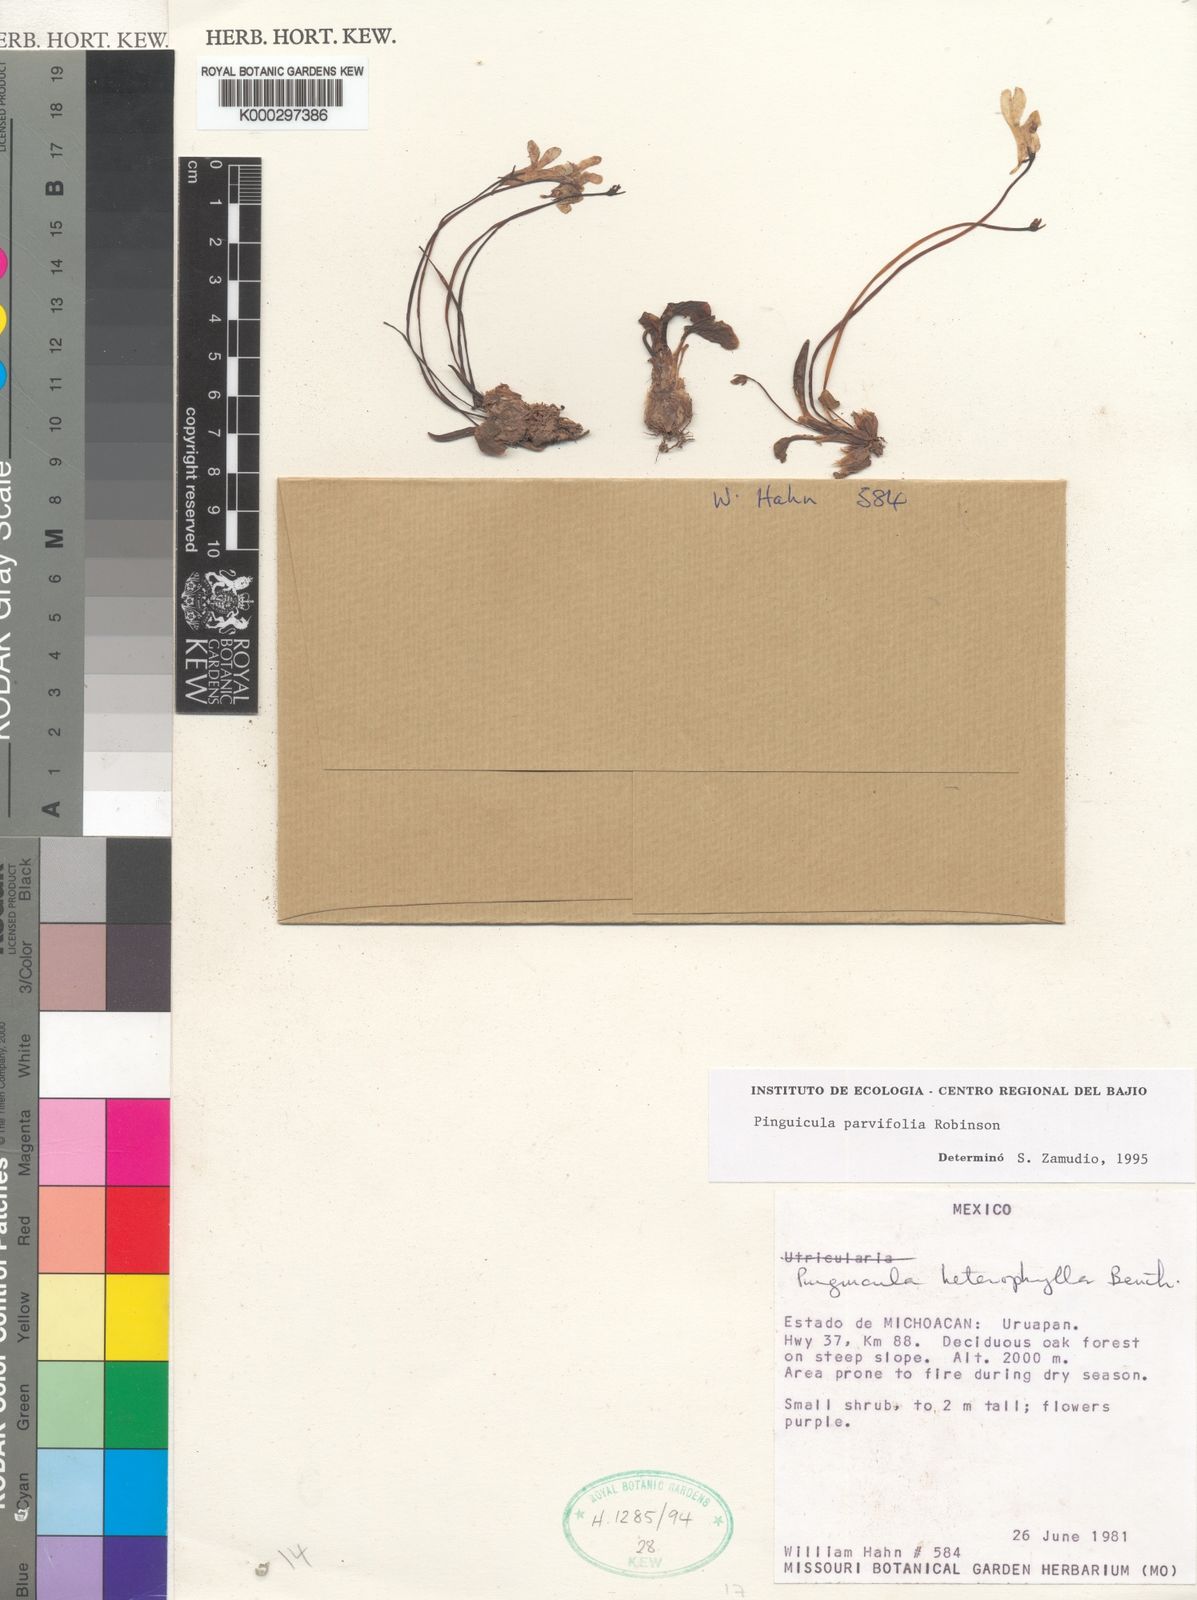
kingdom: Plantae
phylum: Tracheophyta
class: Magnoliopsida
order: Lamiales
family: Lentibulariaceae
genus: Pinguicula
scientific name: Pinguicula parvifolia
